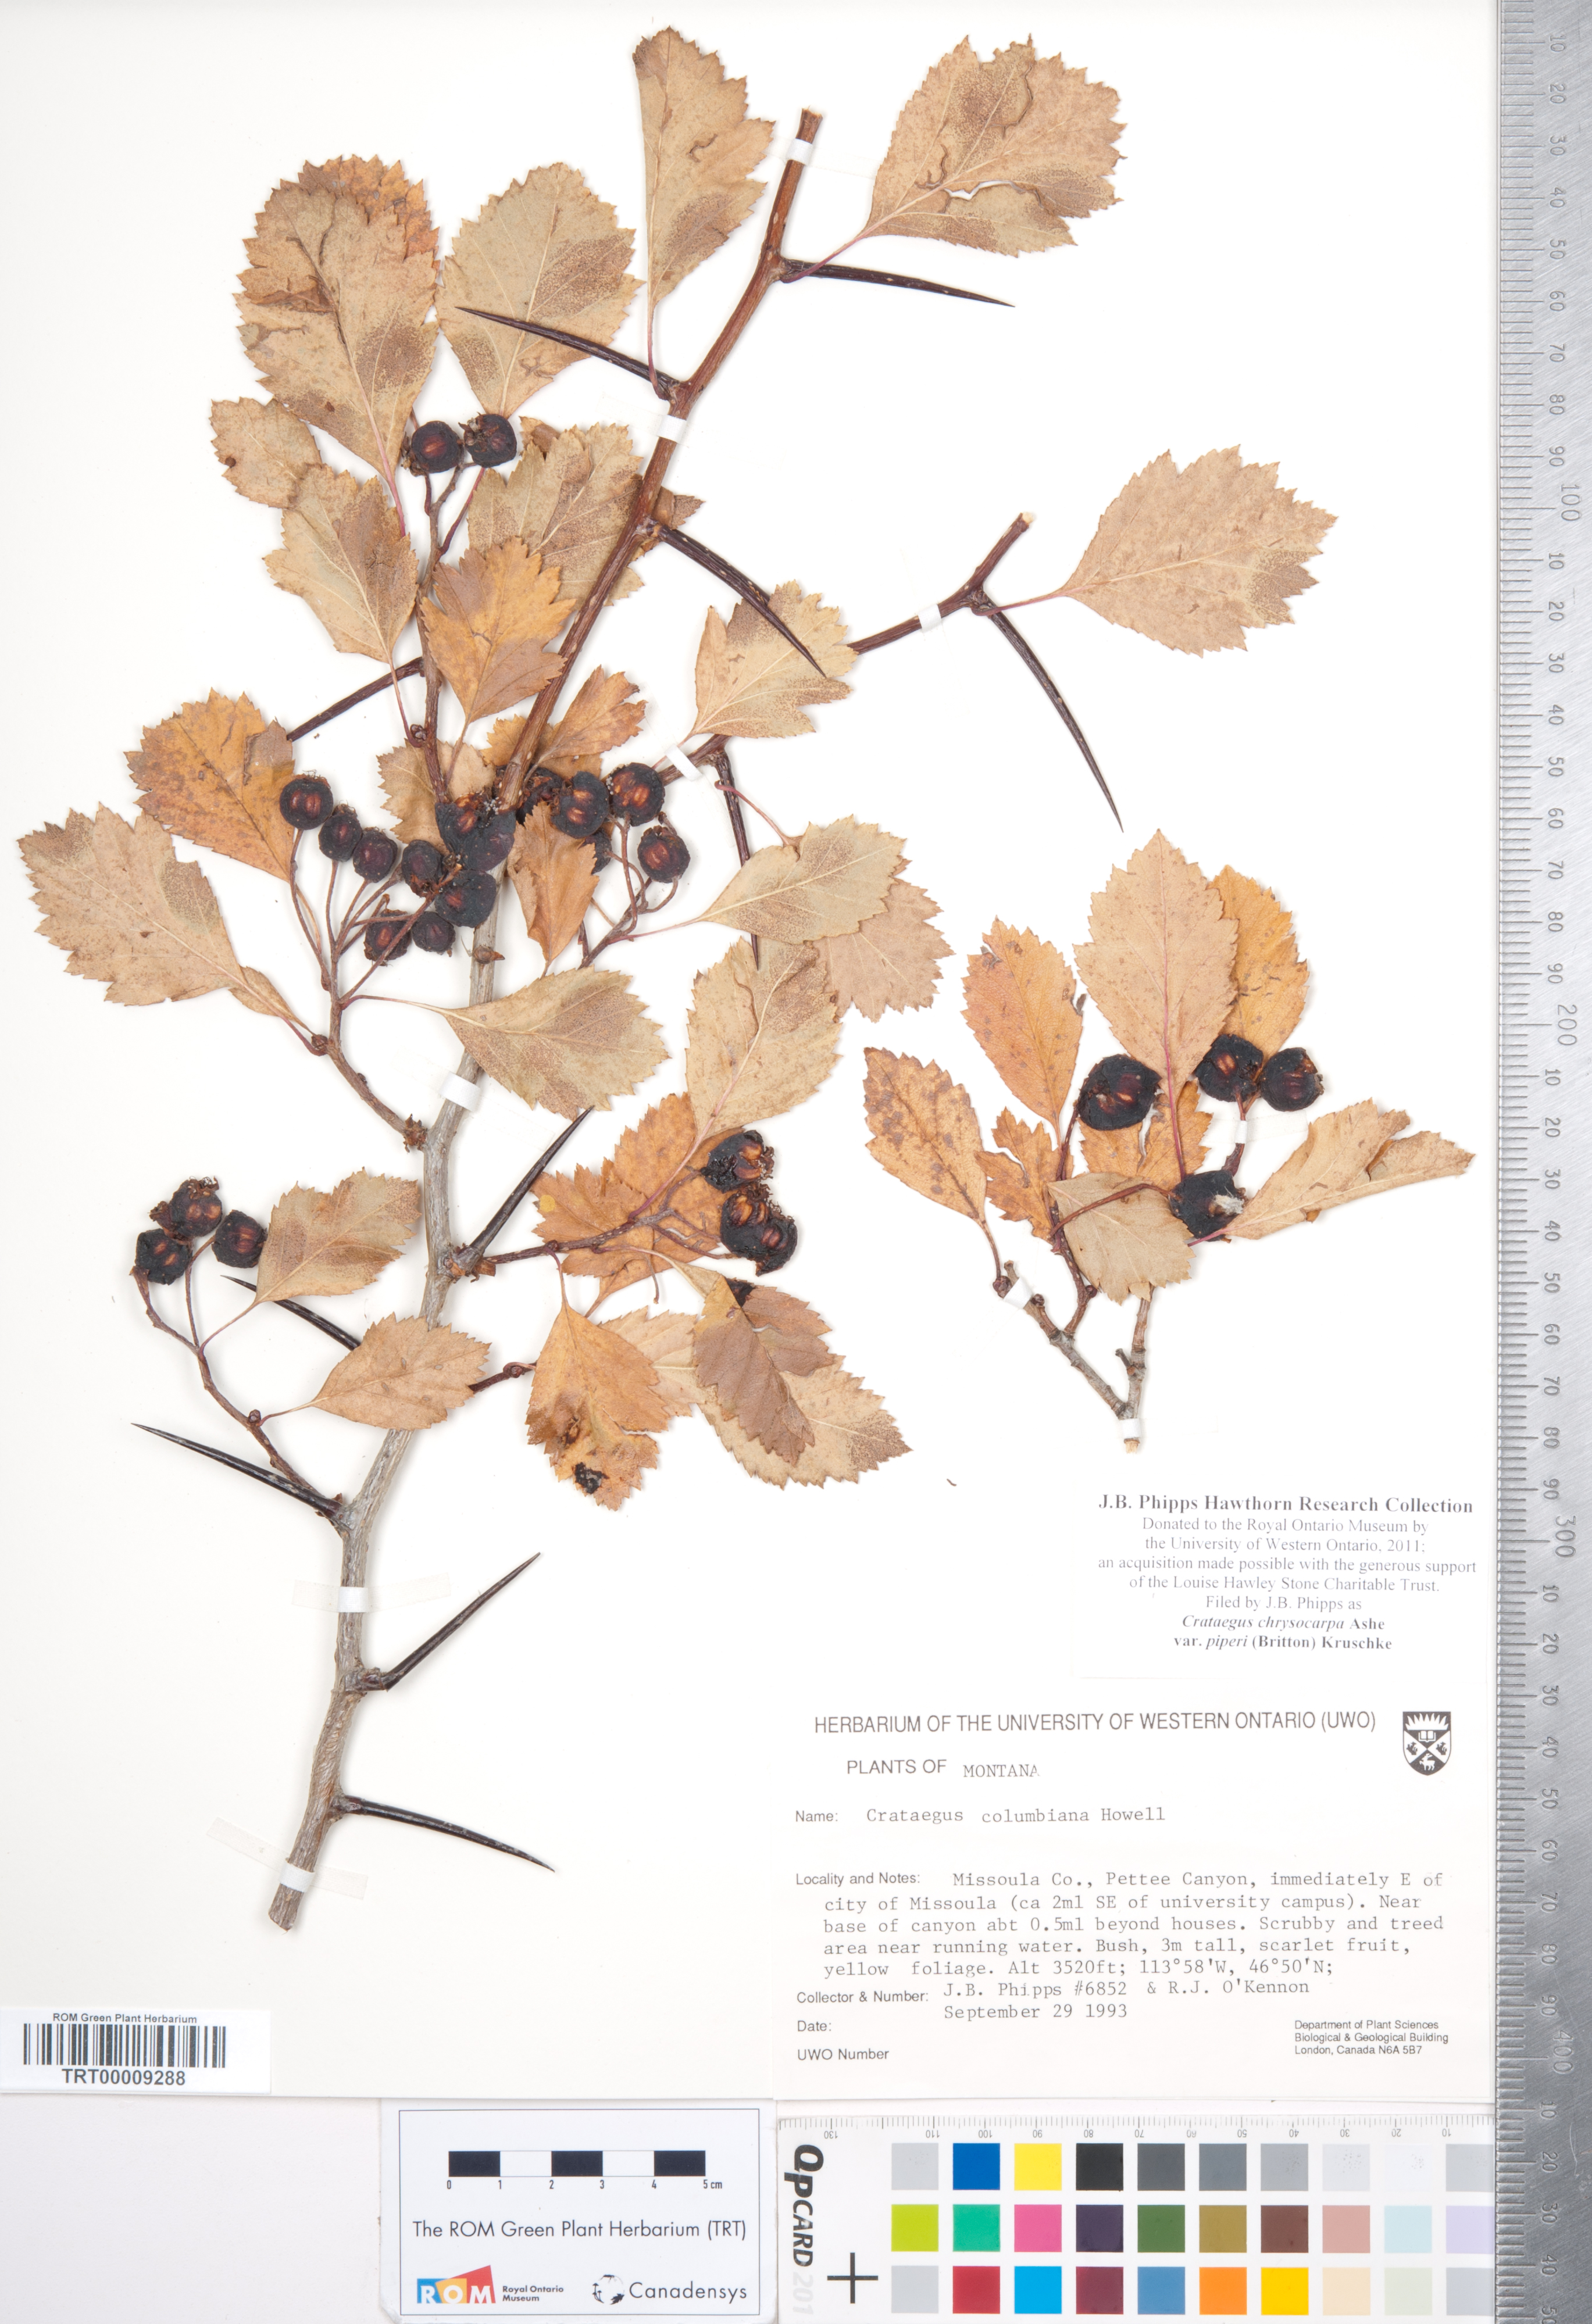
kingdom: Plantae
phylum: Tracheophyta
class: Magnoliopsida
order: Rosales
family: Rosaceae
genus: Crataegus
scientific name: Crataegus piperi
